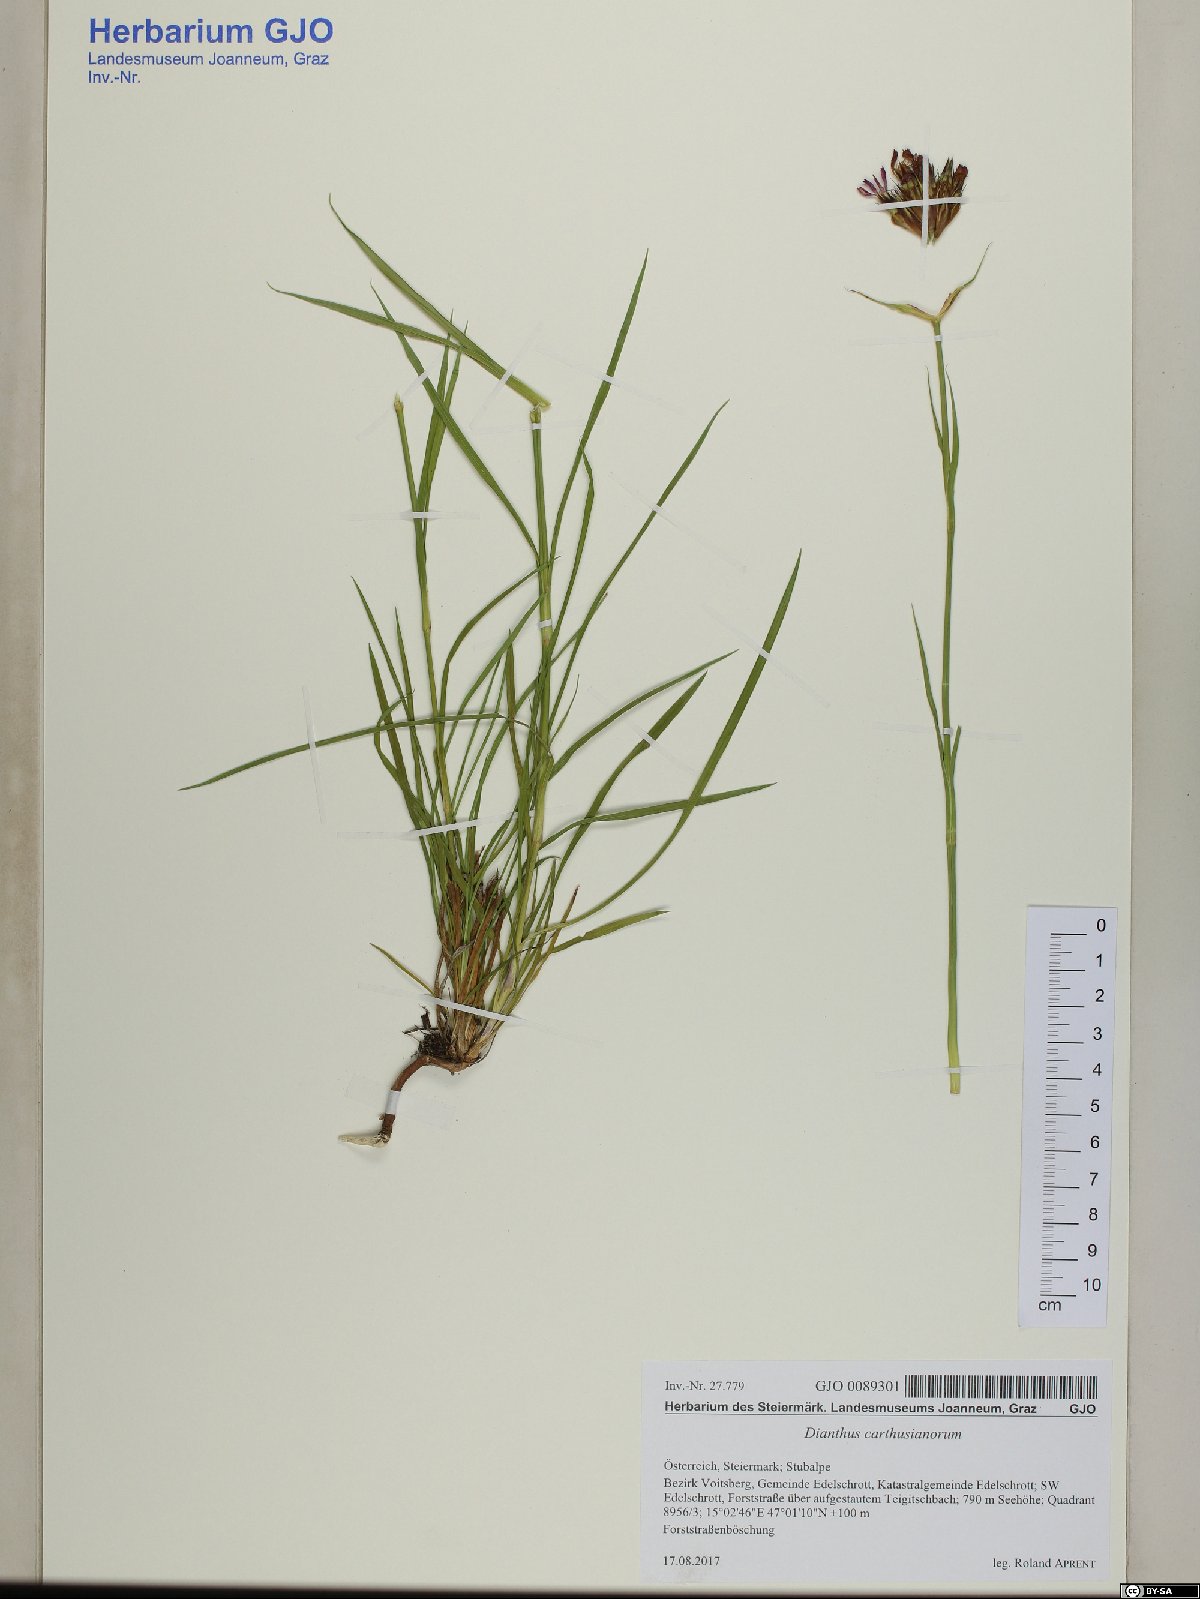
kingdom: Plantae
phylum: Tracheophyta
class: Magnoliopsida
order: Caryophyllales
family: Caryophyllaceae
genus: Dianthus
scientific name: Dianthus carthusianorum
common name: Carthusian pink
